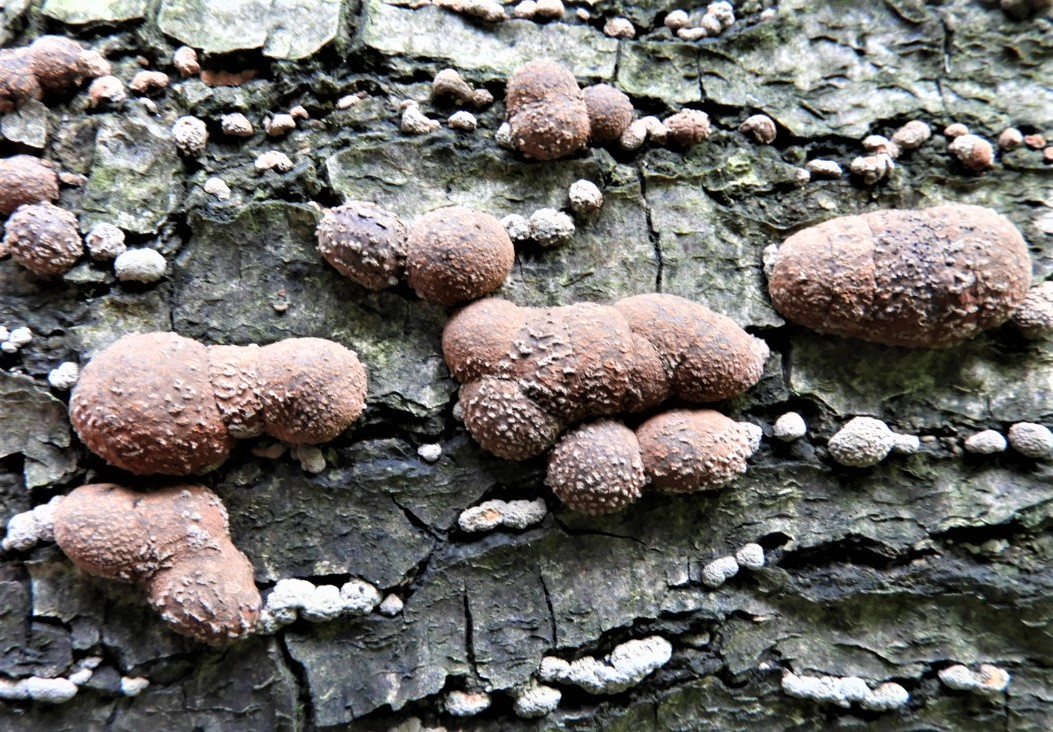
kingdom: Fungi
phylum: Ascomycota
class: Sordariomycetes
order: Xylariales
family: Hypoxylaceae
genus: Hypoxylon
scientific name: Hypoxylon fragiforme
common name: kuljordbær
